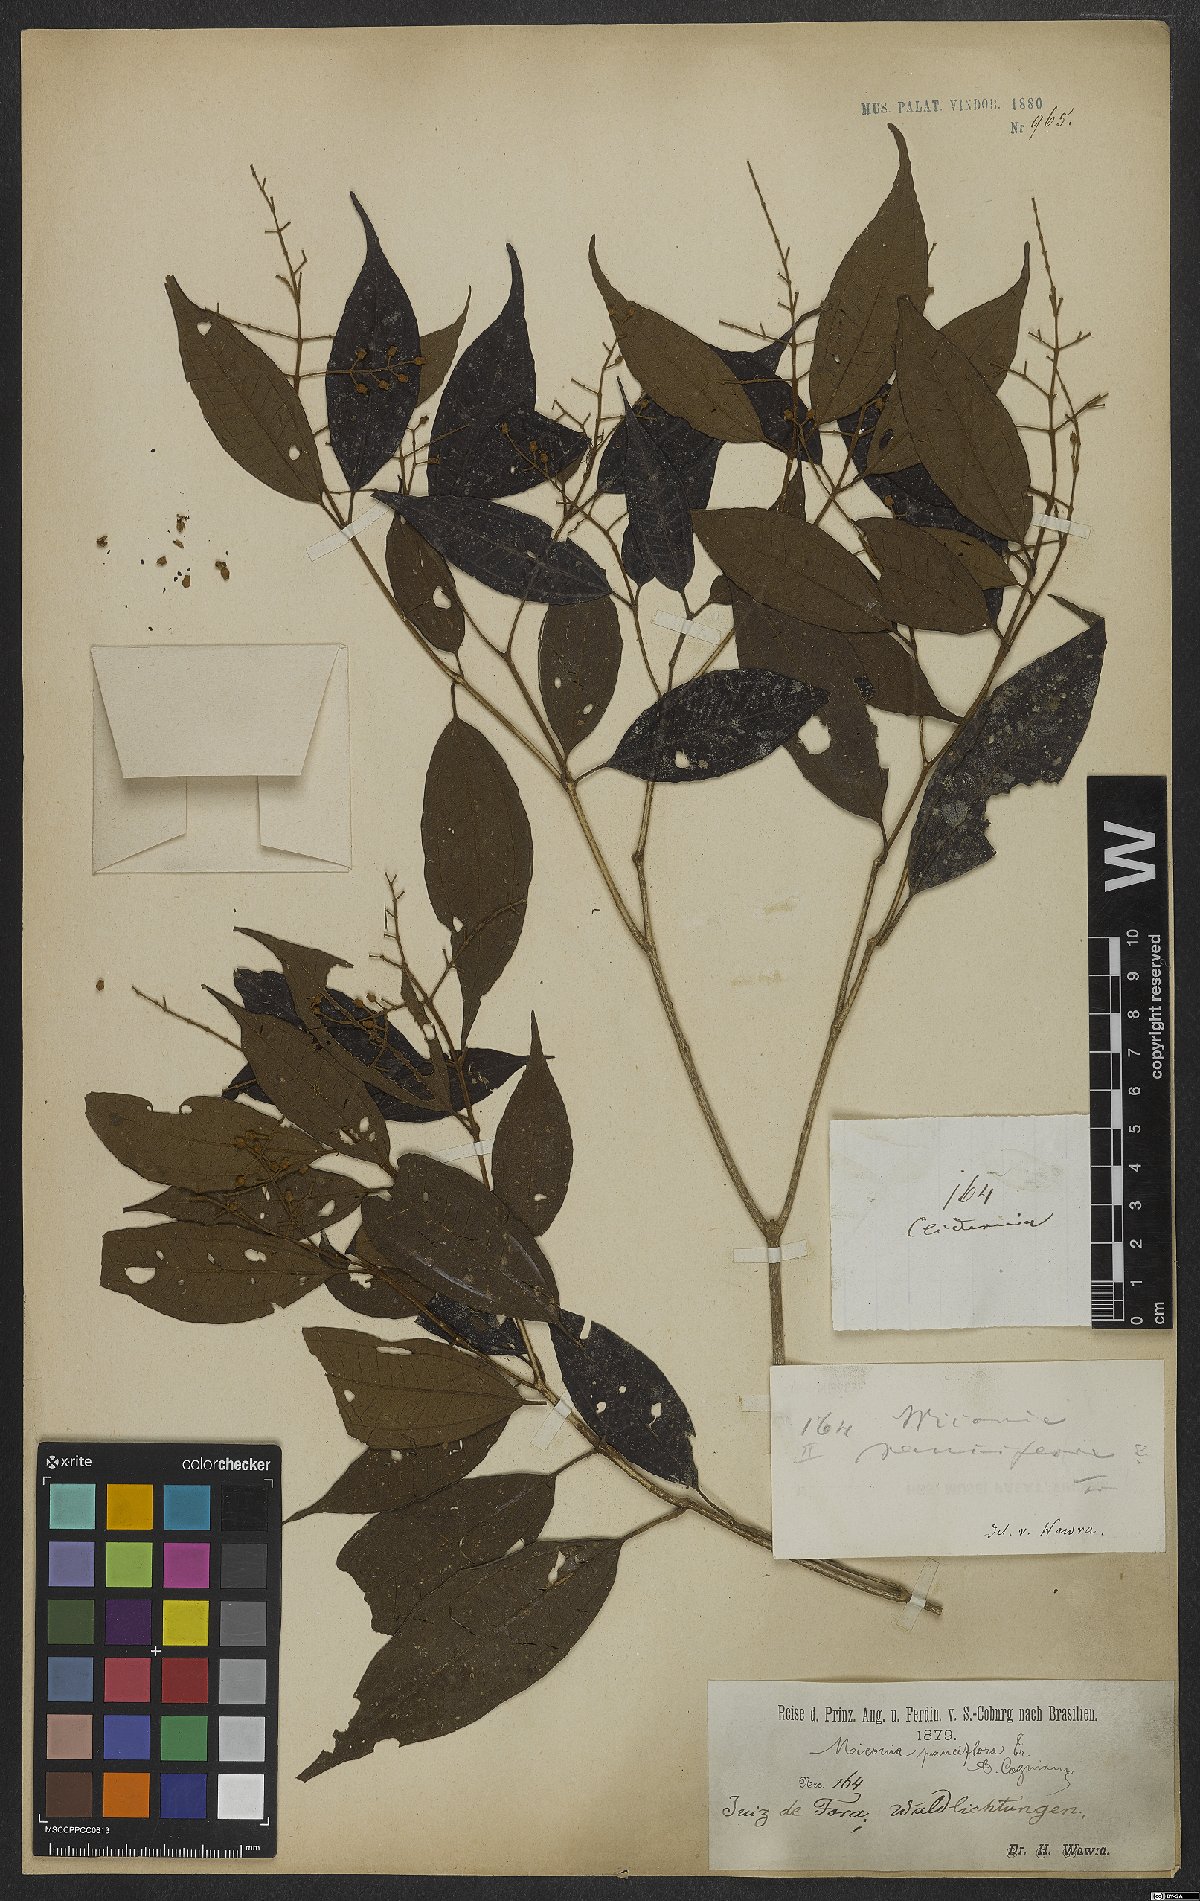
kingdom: Plantae
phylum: Tracheophyta
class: Magnoliopsida
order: Myrtales
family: Melastomataceae
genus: Miconia
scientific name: Miconia brasiliensis
